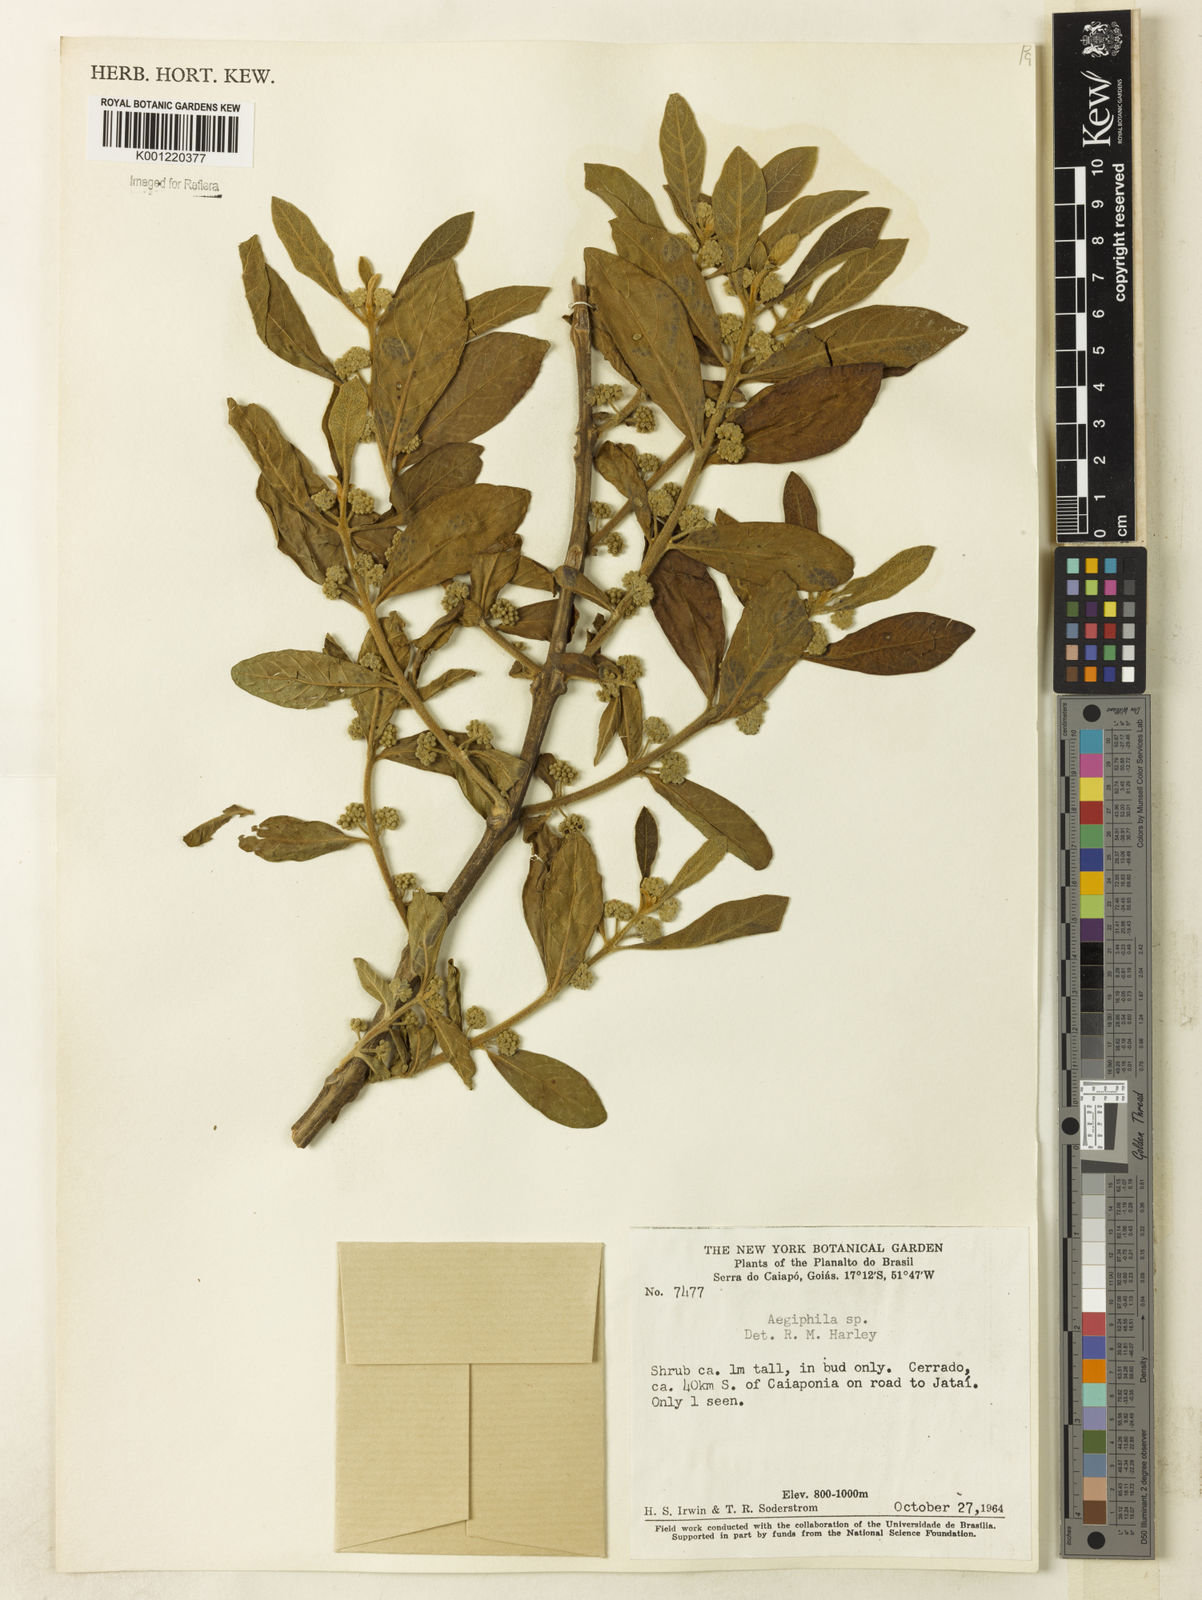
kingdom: Plantae
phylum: Tracheophyta
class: Magnoliopsida
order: Lamiales
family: Lamiaceae
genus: Aegiphila
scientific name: Aegiphila
